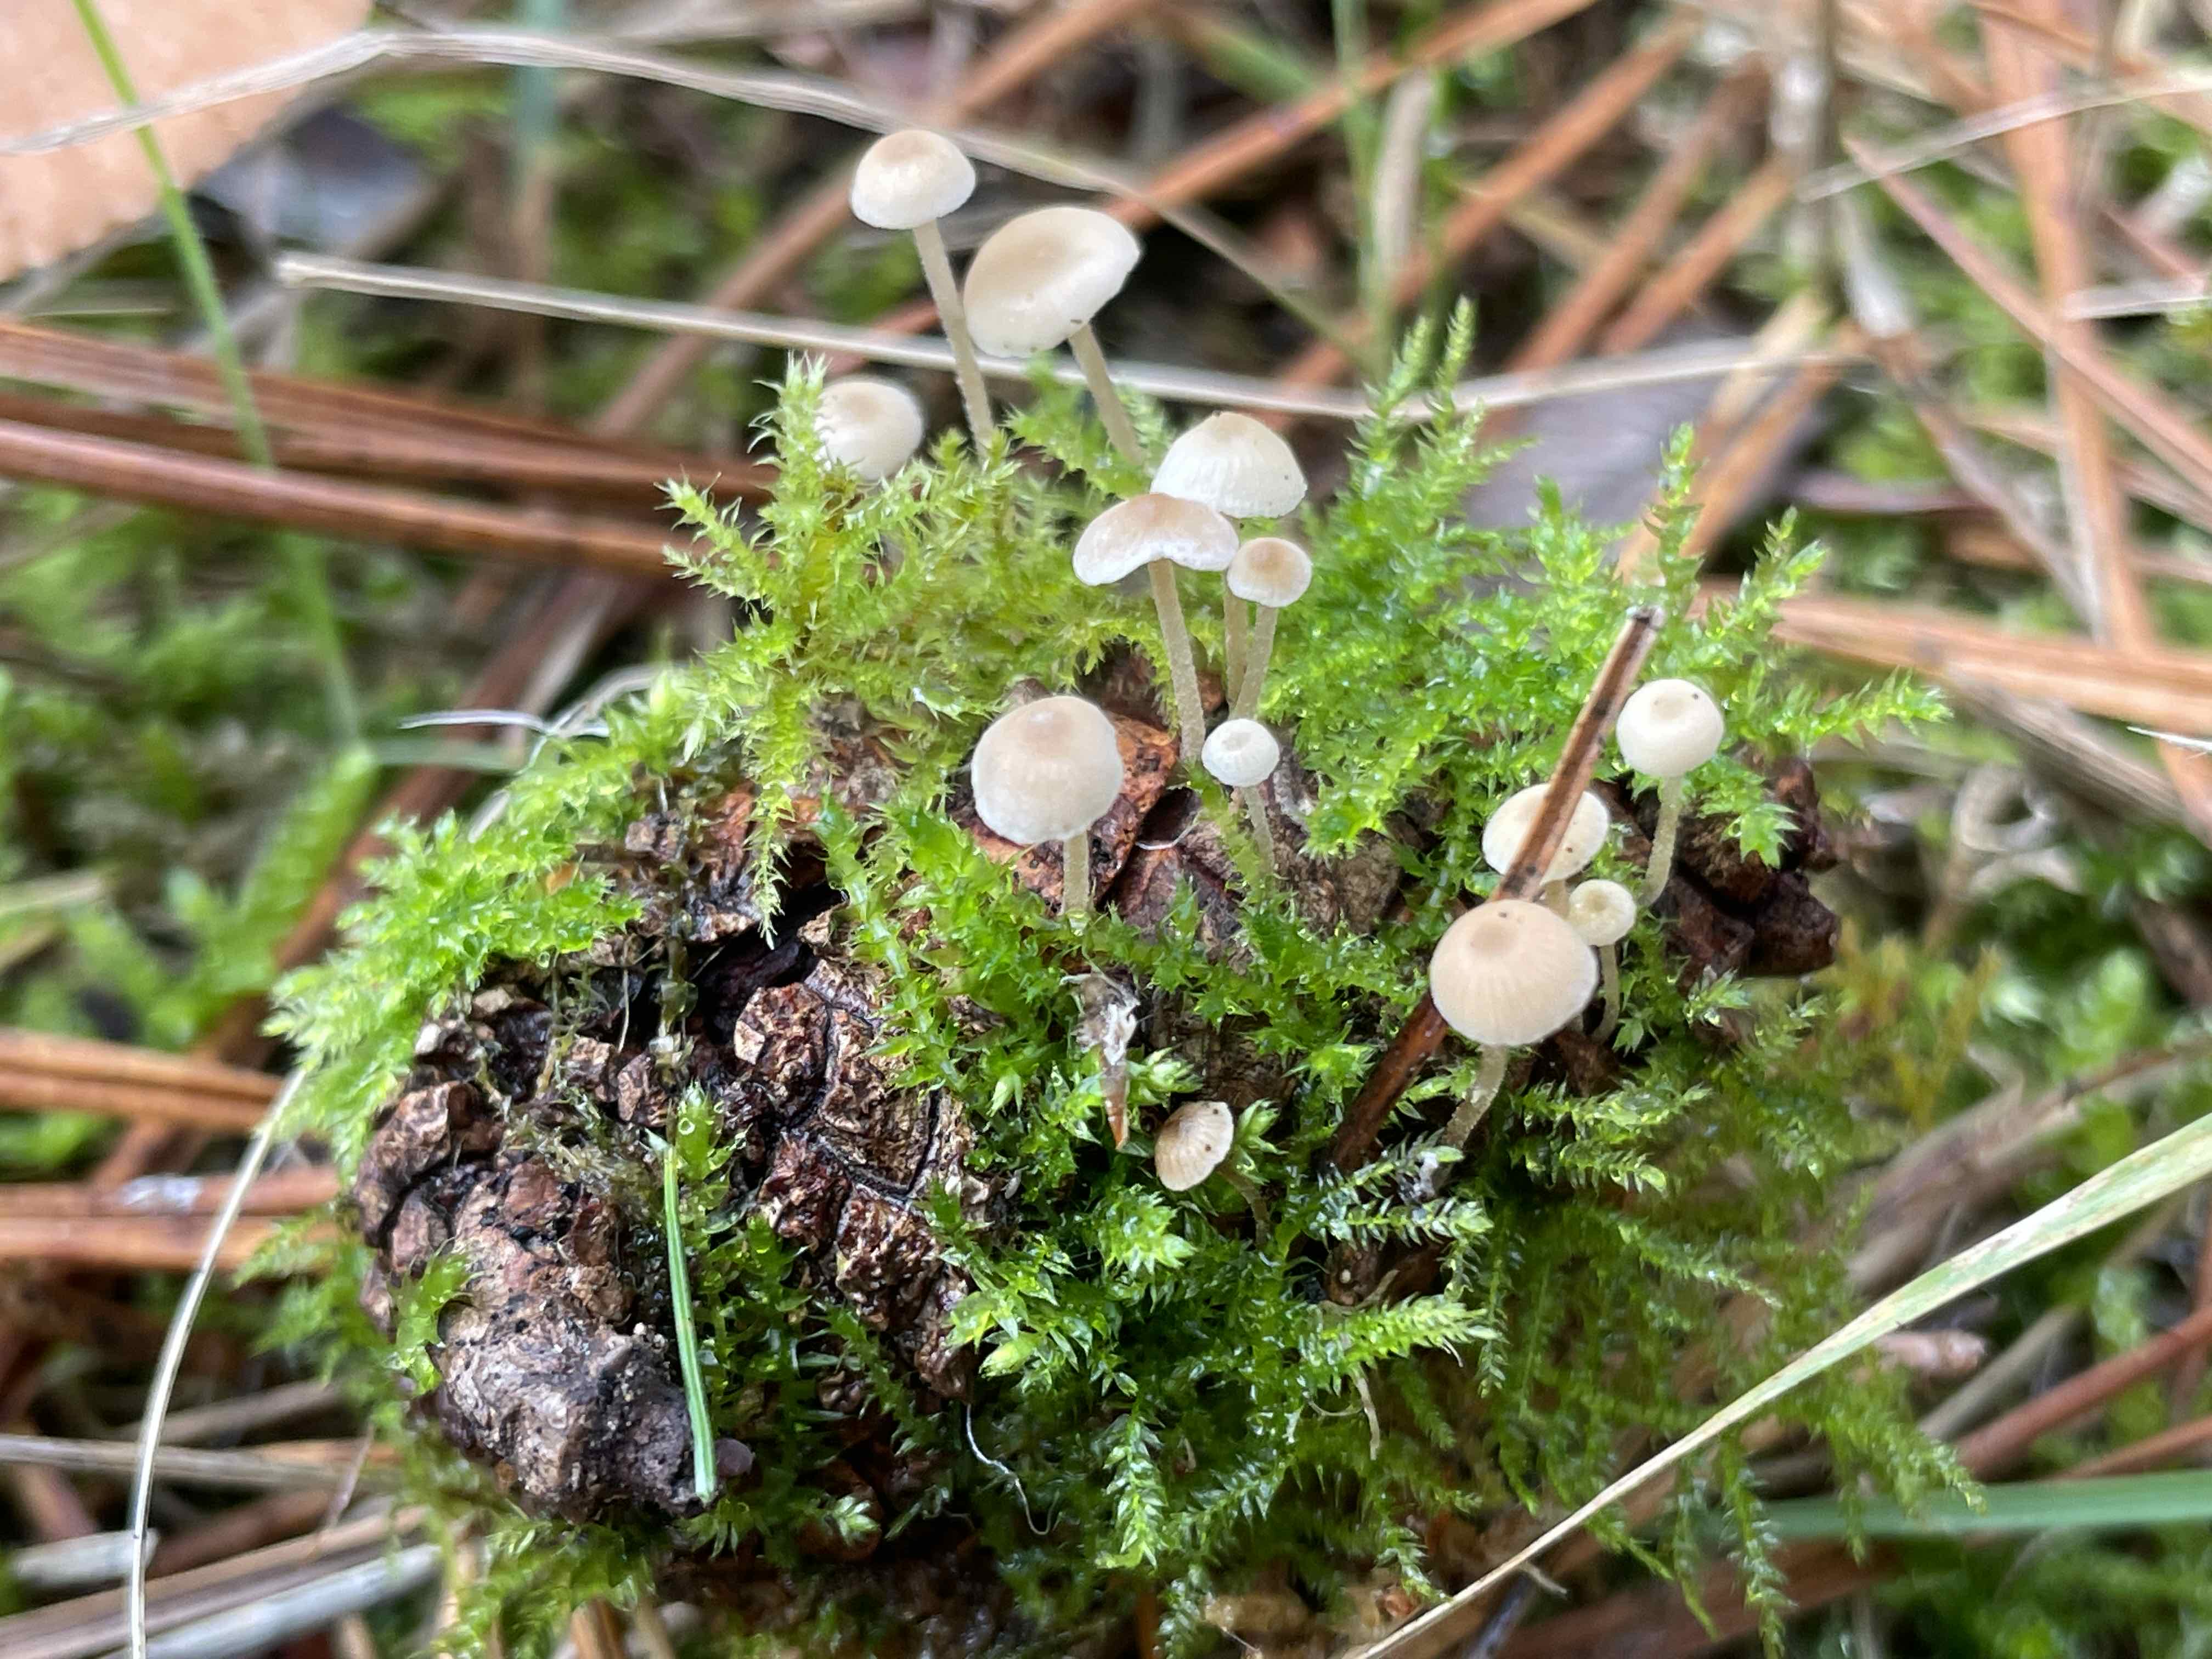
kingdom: Fungi
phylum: Basidiomycota
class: Agaricomycetes
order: Agaricales
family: Marasmiaceae
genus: Baeospora
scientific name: Baeospora myosura
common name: koglebruskhat
